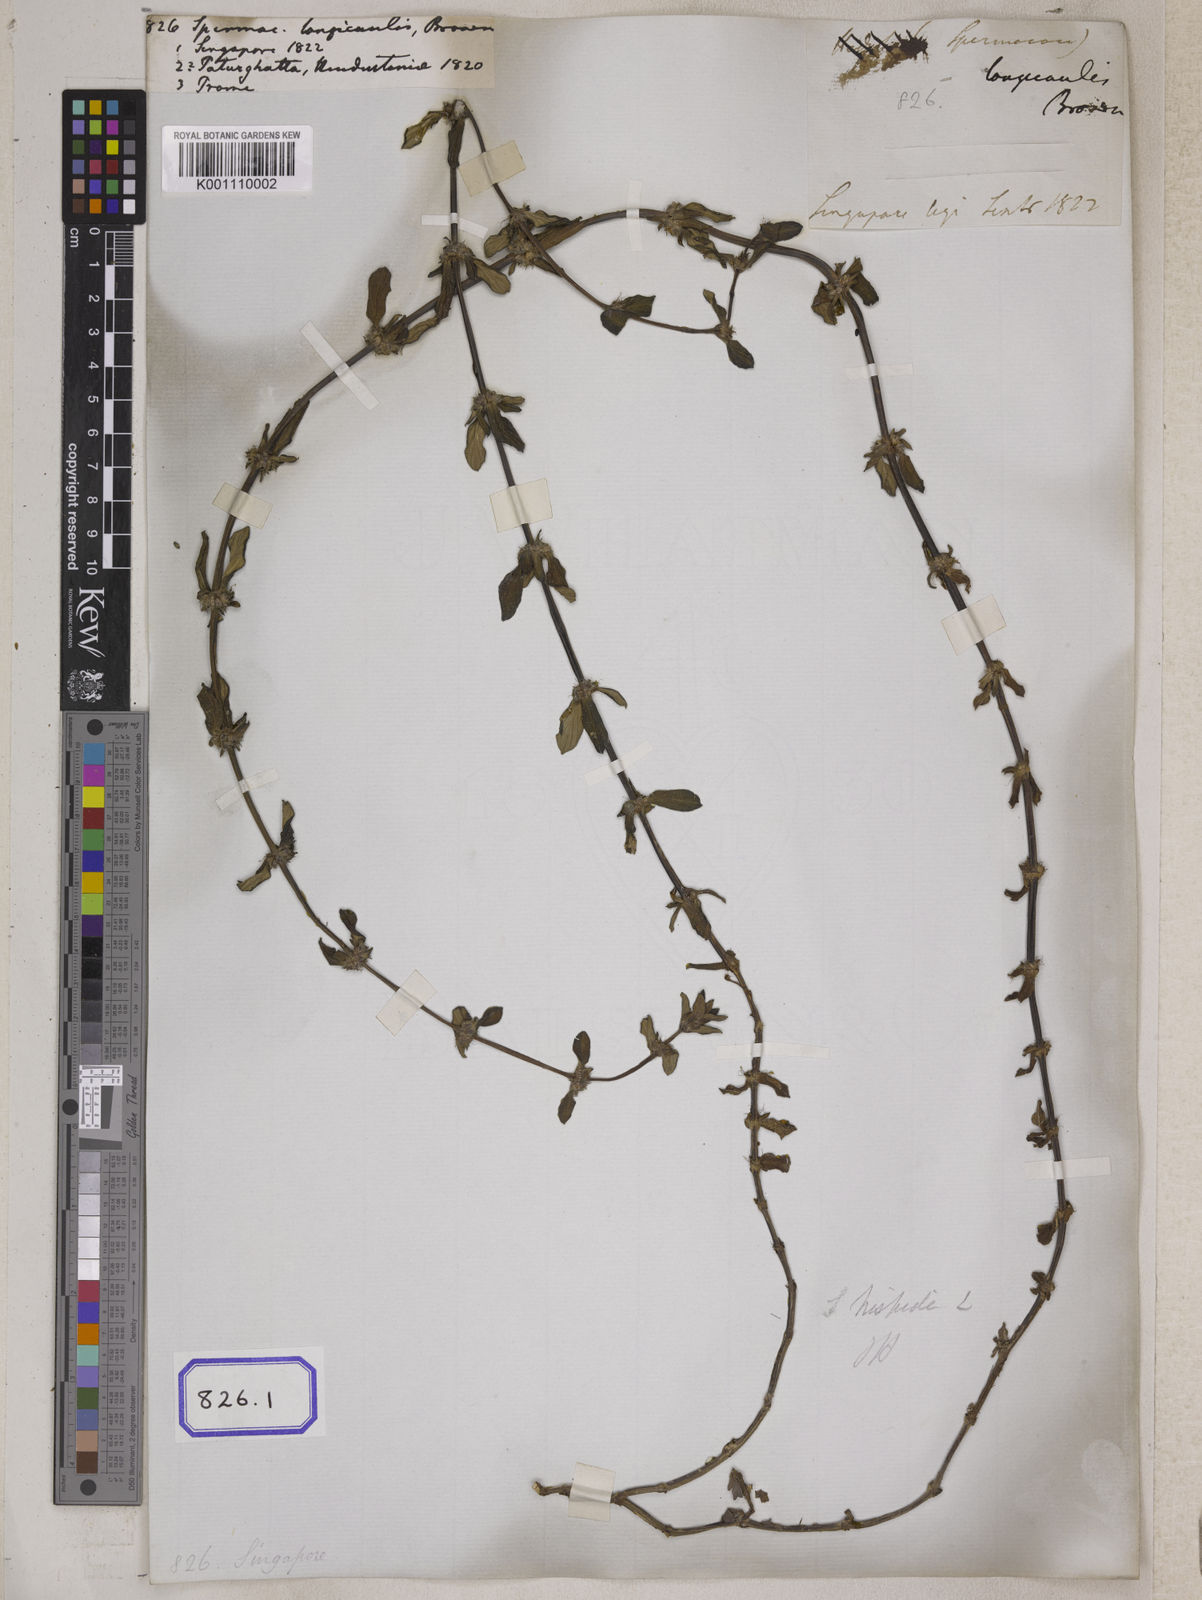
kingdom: Plantae
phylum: Tracheophyta
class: Magnoliopsida
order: Gentianales
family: Rubiaceae
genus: Spermacoce
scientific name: Spermacoce
